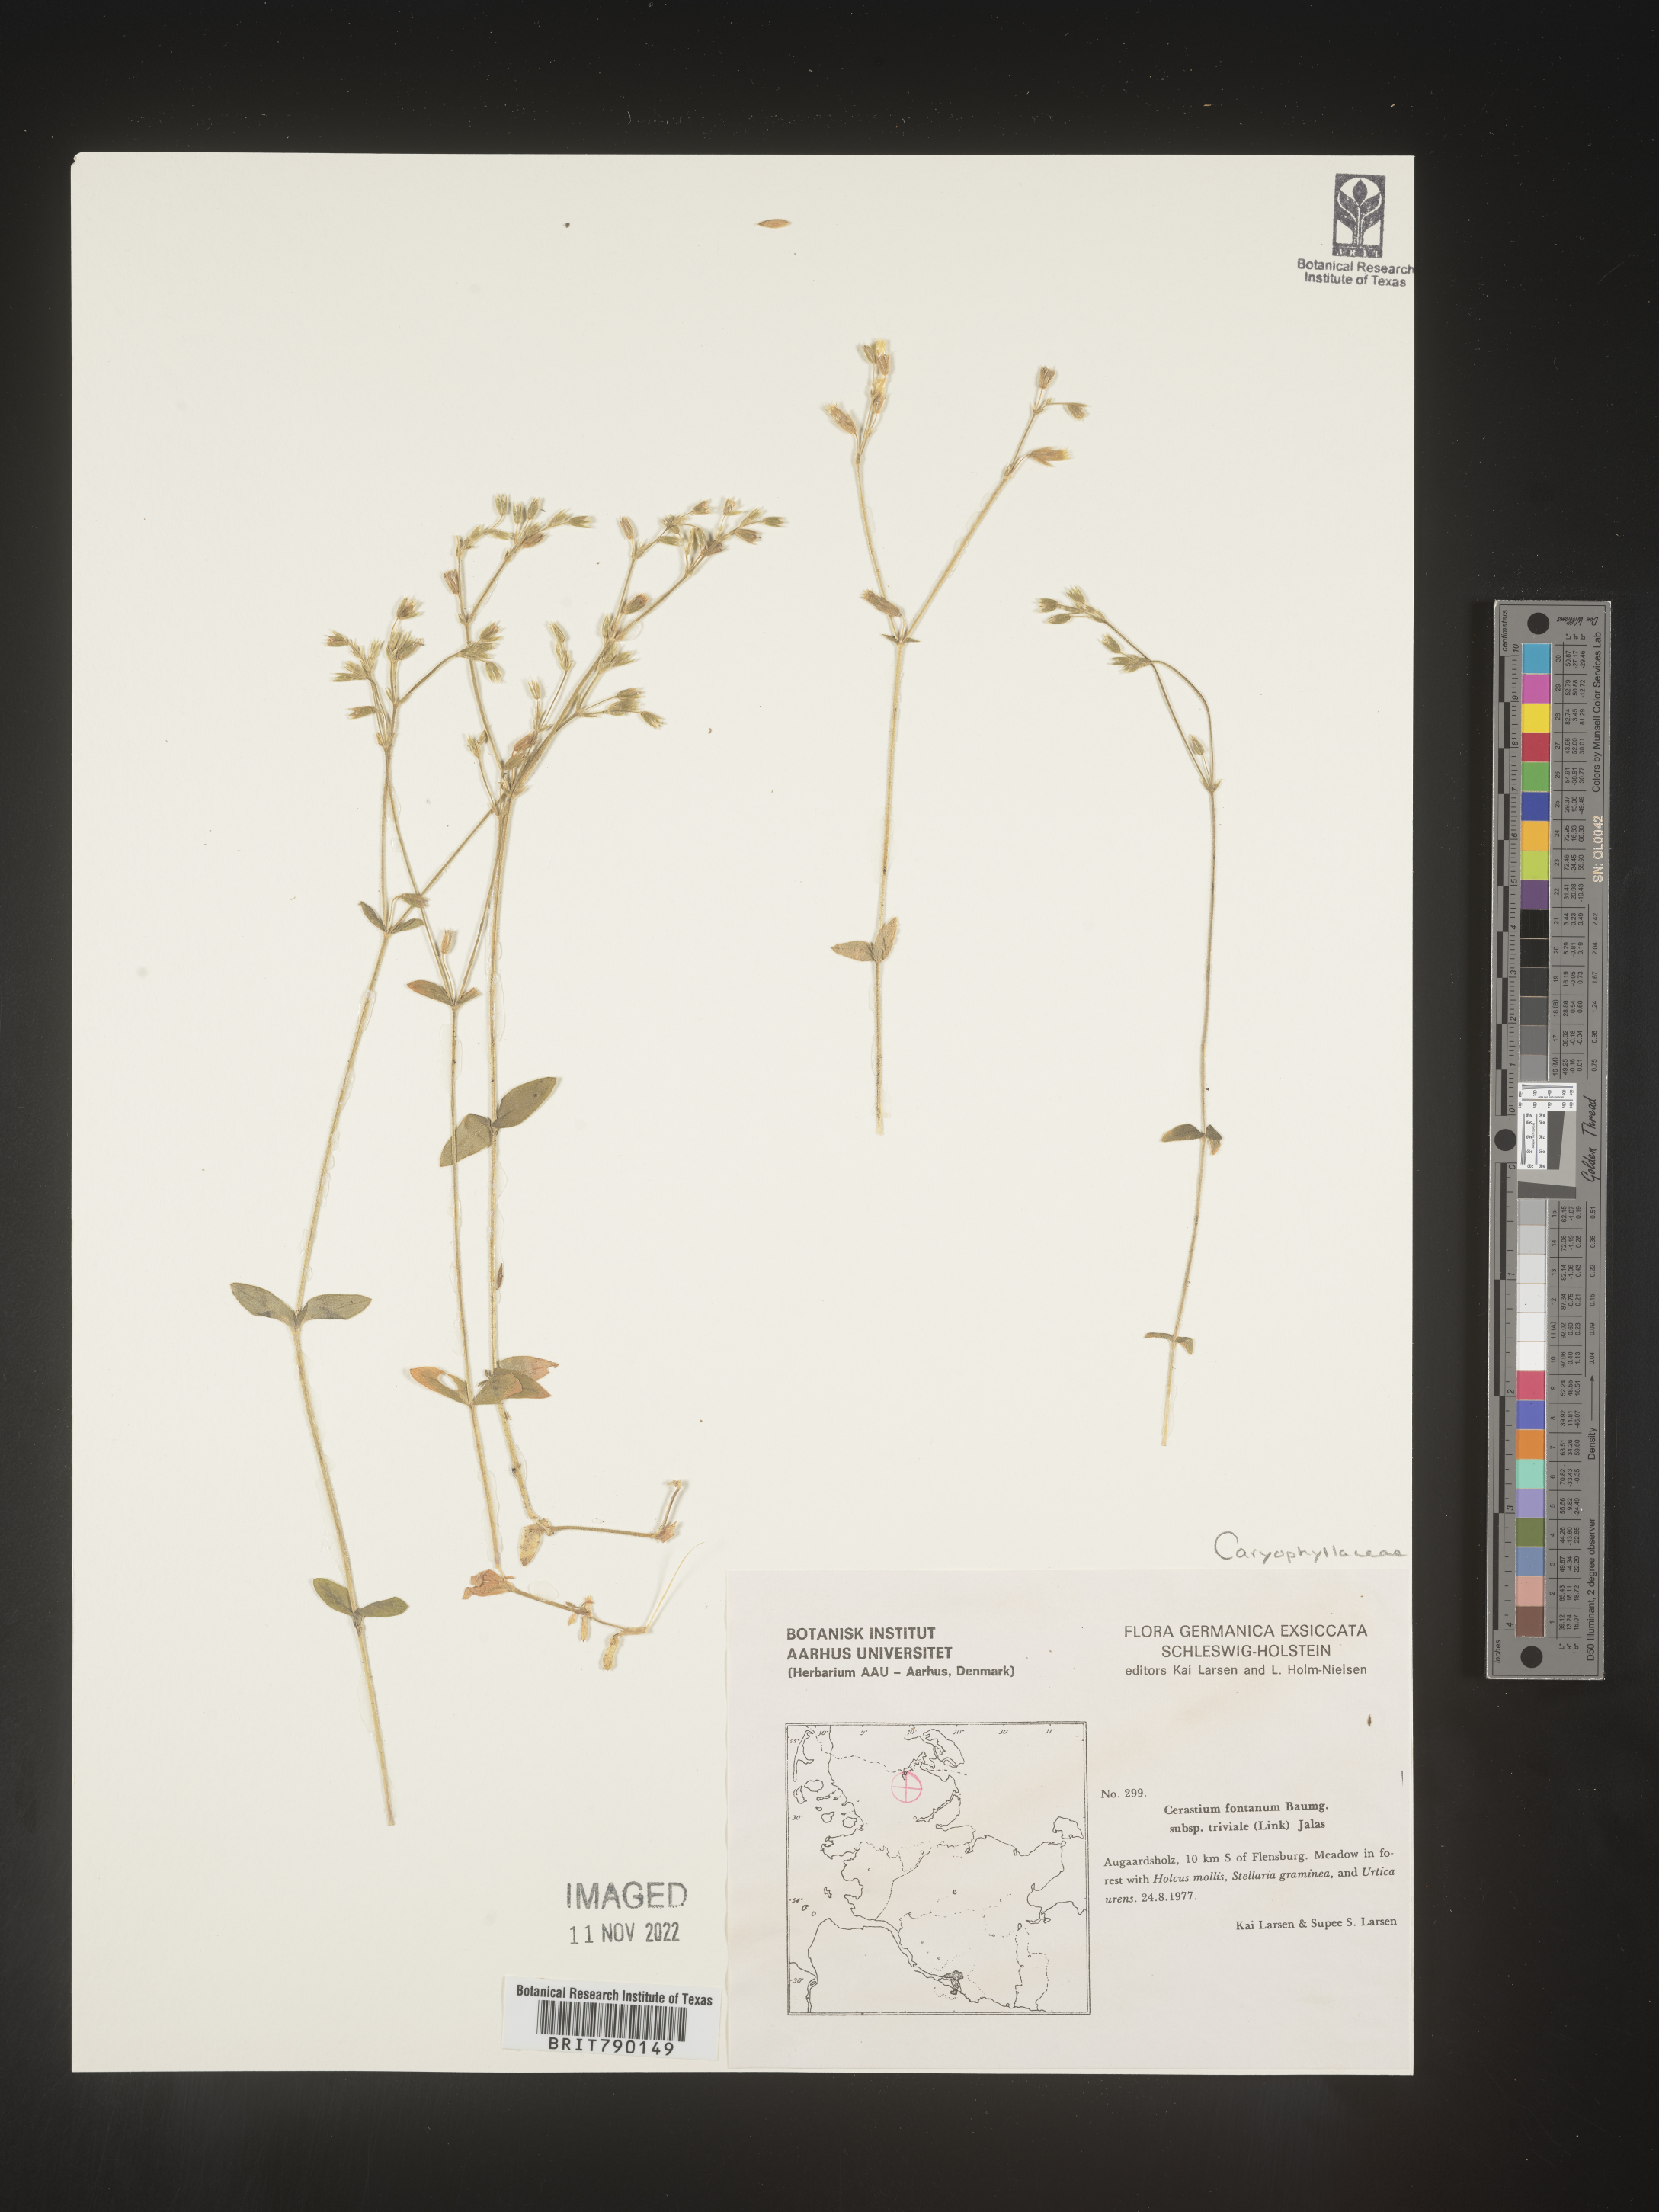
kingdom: Plantae
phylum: Tracheophyta
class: Magnoliopsida
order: Caryophyllales
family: Caryophyllaceae
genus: Cerastium
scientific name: Cerastium
